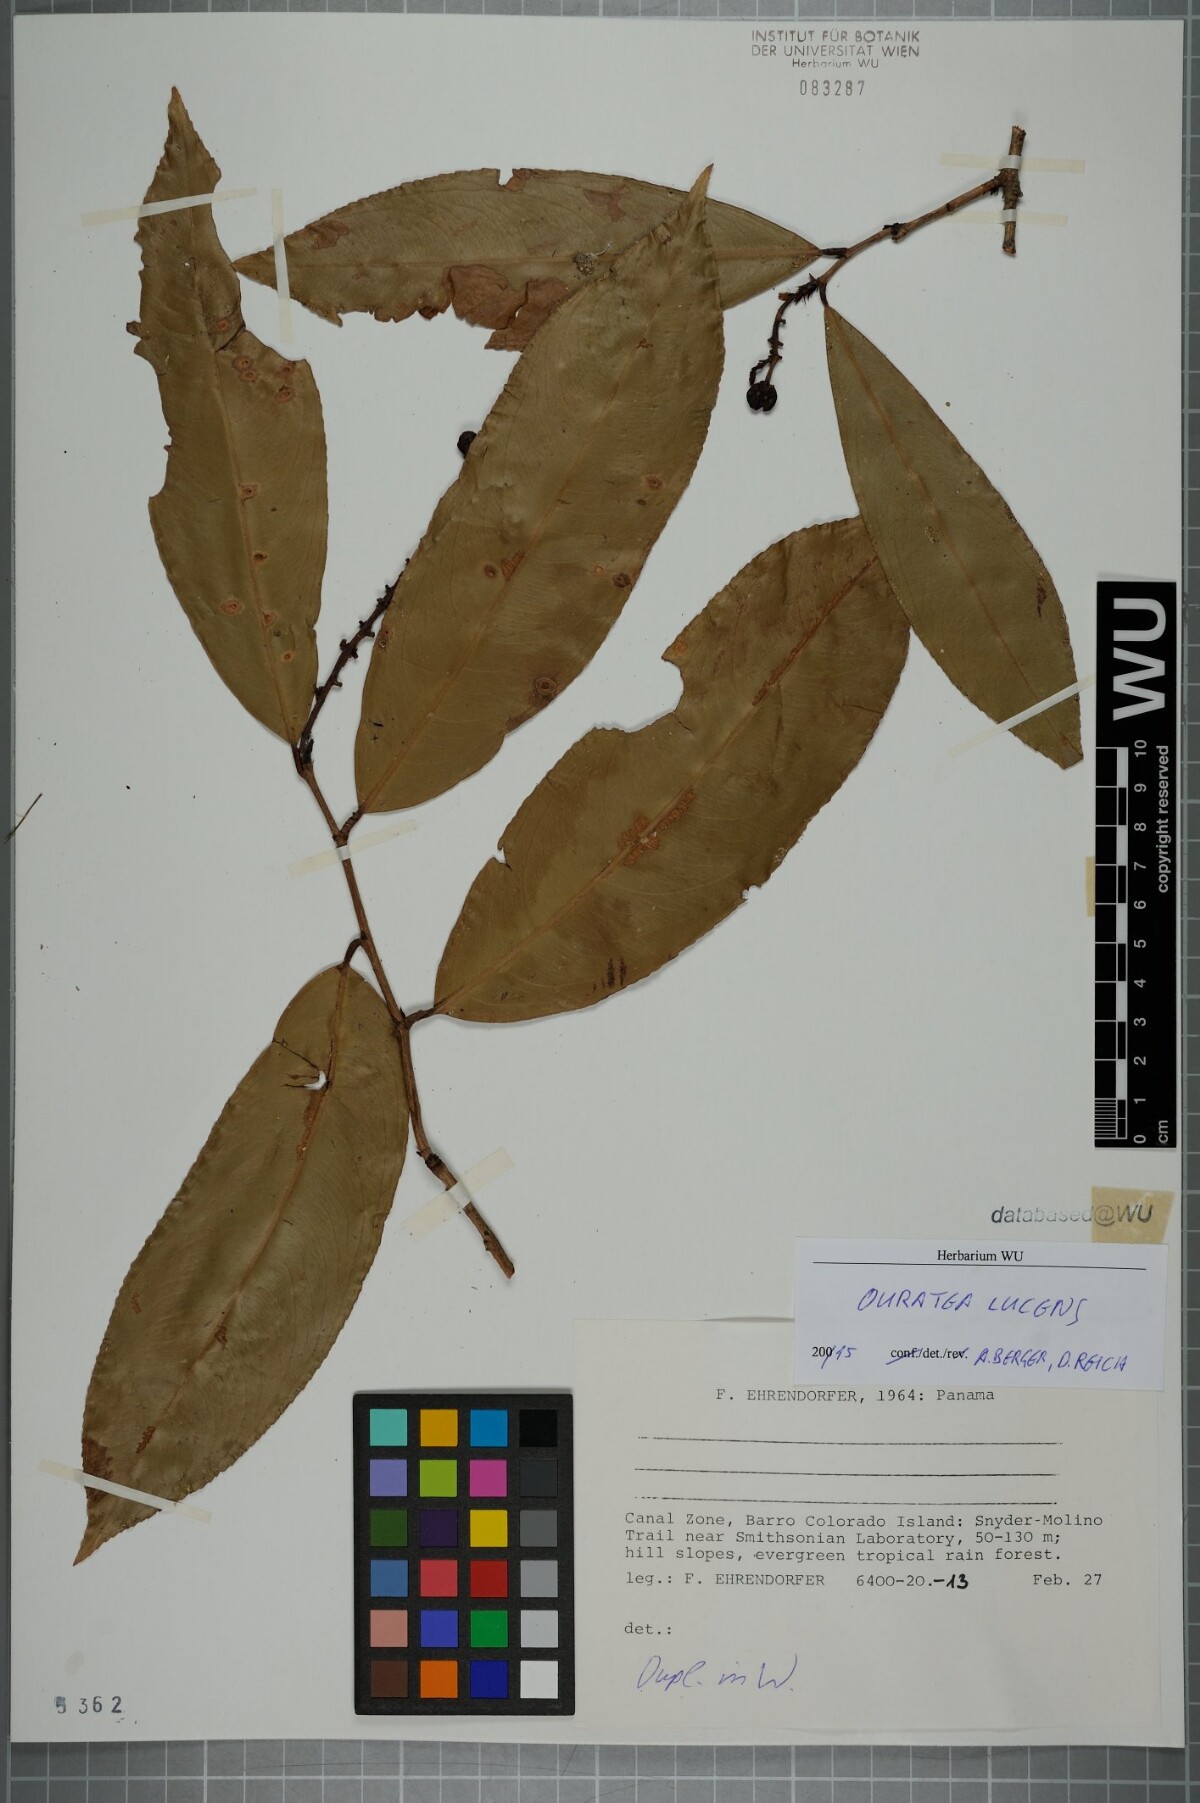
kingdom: Plantae
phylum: Tracheophyta
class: Magnoliopsida
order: Malpighiales
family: Ochnaceae
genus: Ouratea
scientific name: Ouratea lucens
